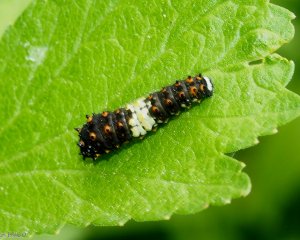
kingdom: Animalia
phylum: Arthropoda
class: Insecta
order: Lepidoptera
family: Papilionidae
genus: Papilio
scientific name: Papilio polyxenes
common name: Black Swallowtail
